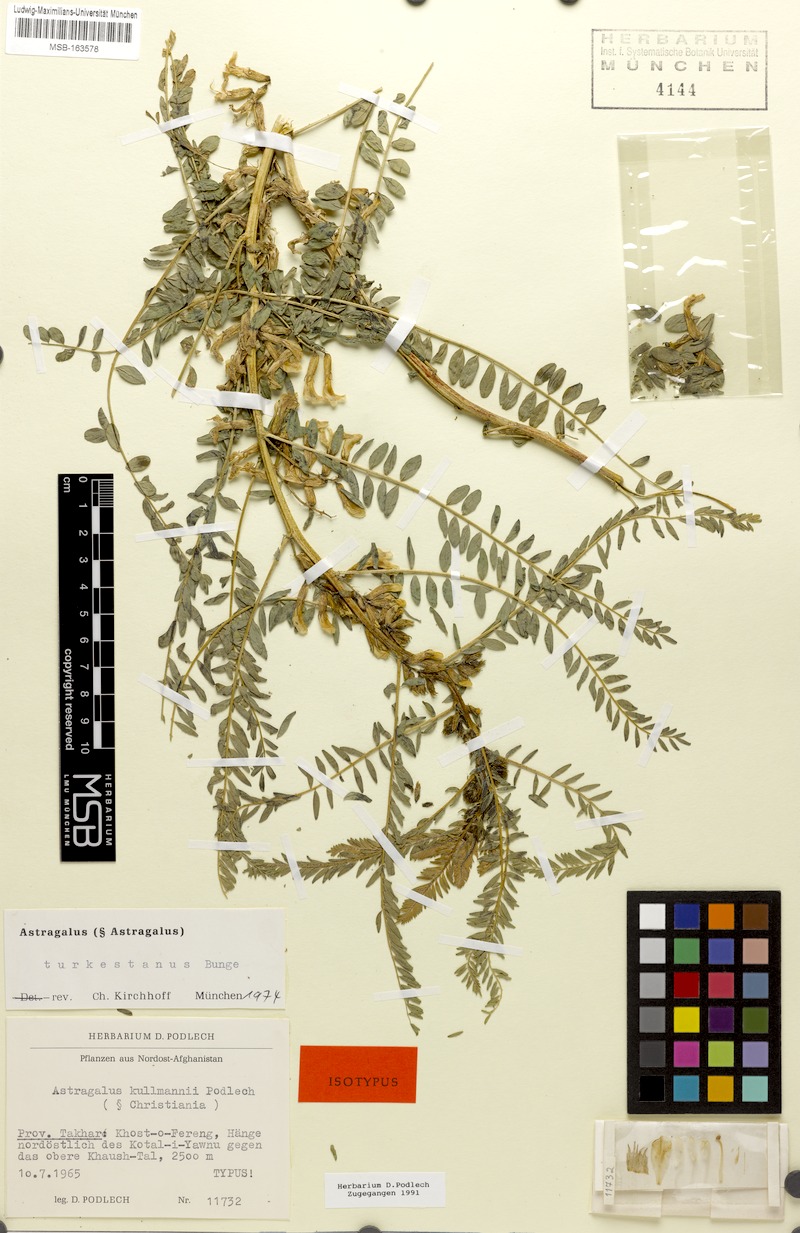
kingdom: Plantae
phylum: Tracheophyta
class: Magnoliopsida
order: Fabales
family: Fabaceae
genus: Astragalus
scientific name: Astragalus turkestanus
